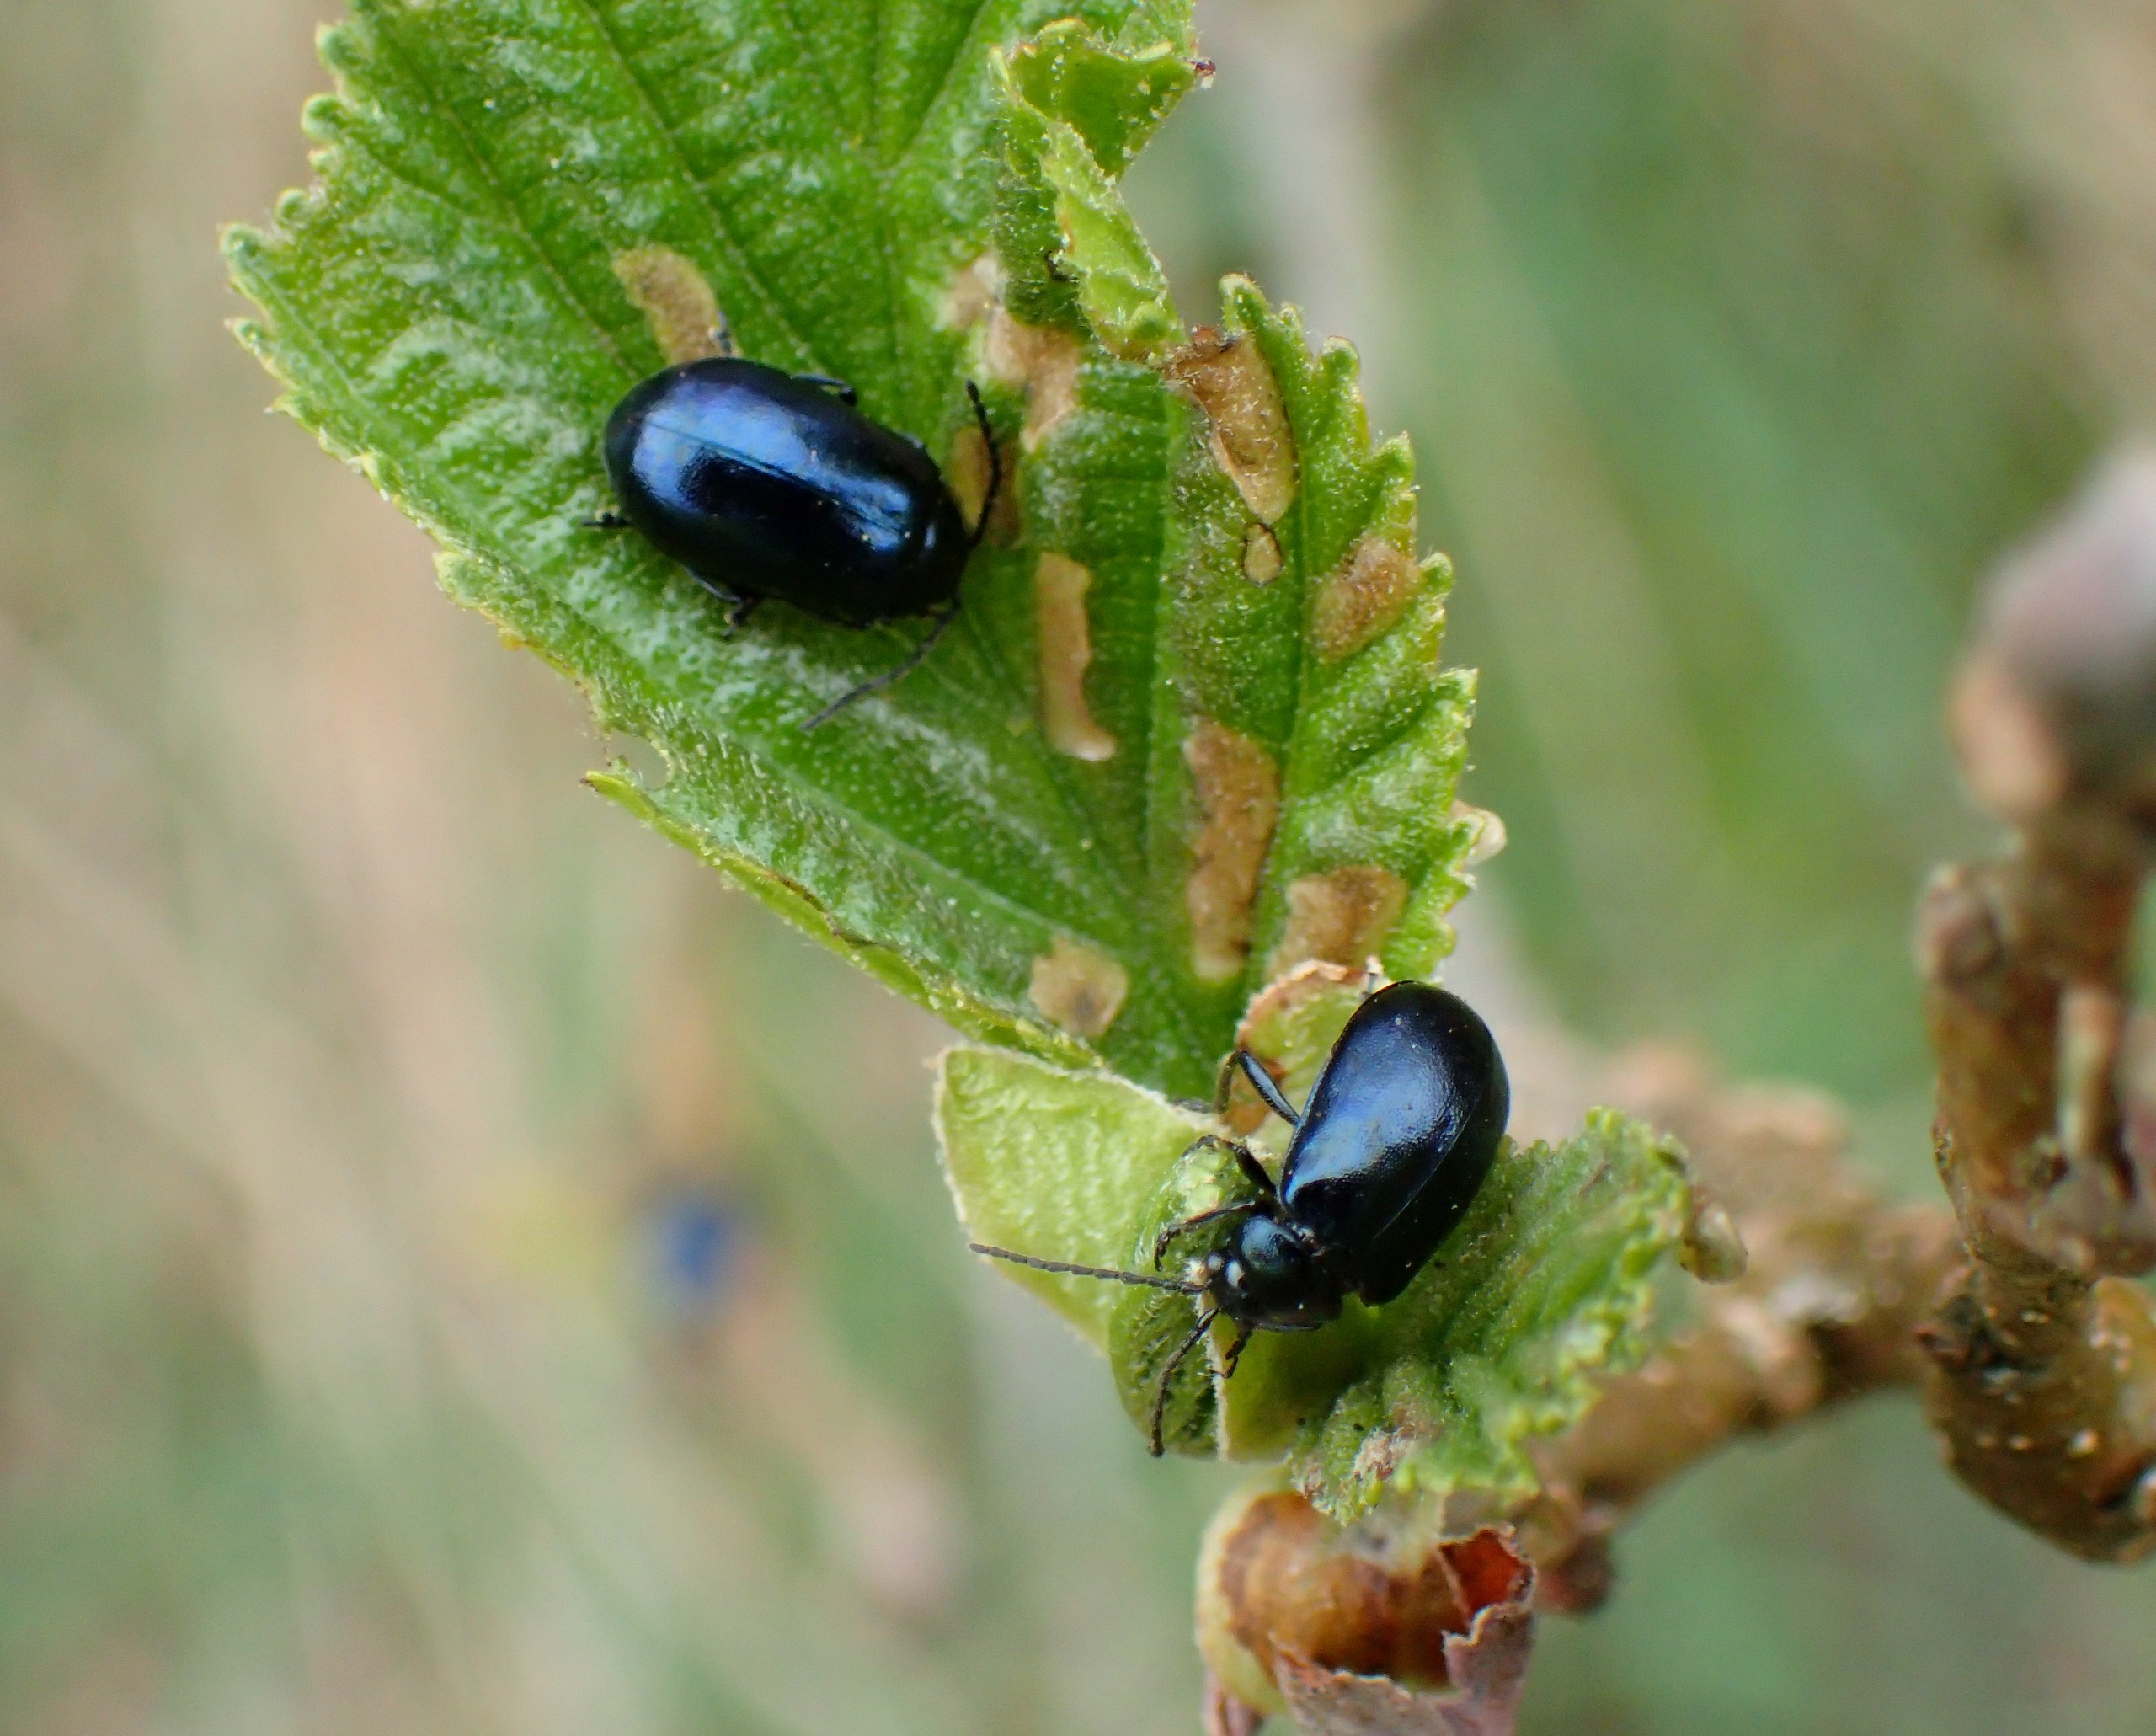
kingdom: Animalia
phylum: Arthropoda
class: Insecta
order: Coleoptera
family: Chrysomelidae
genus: Agelastica
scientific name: Agelastica alni
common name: Ellebladbille
